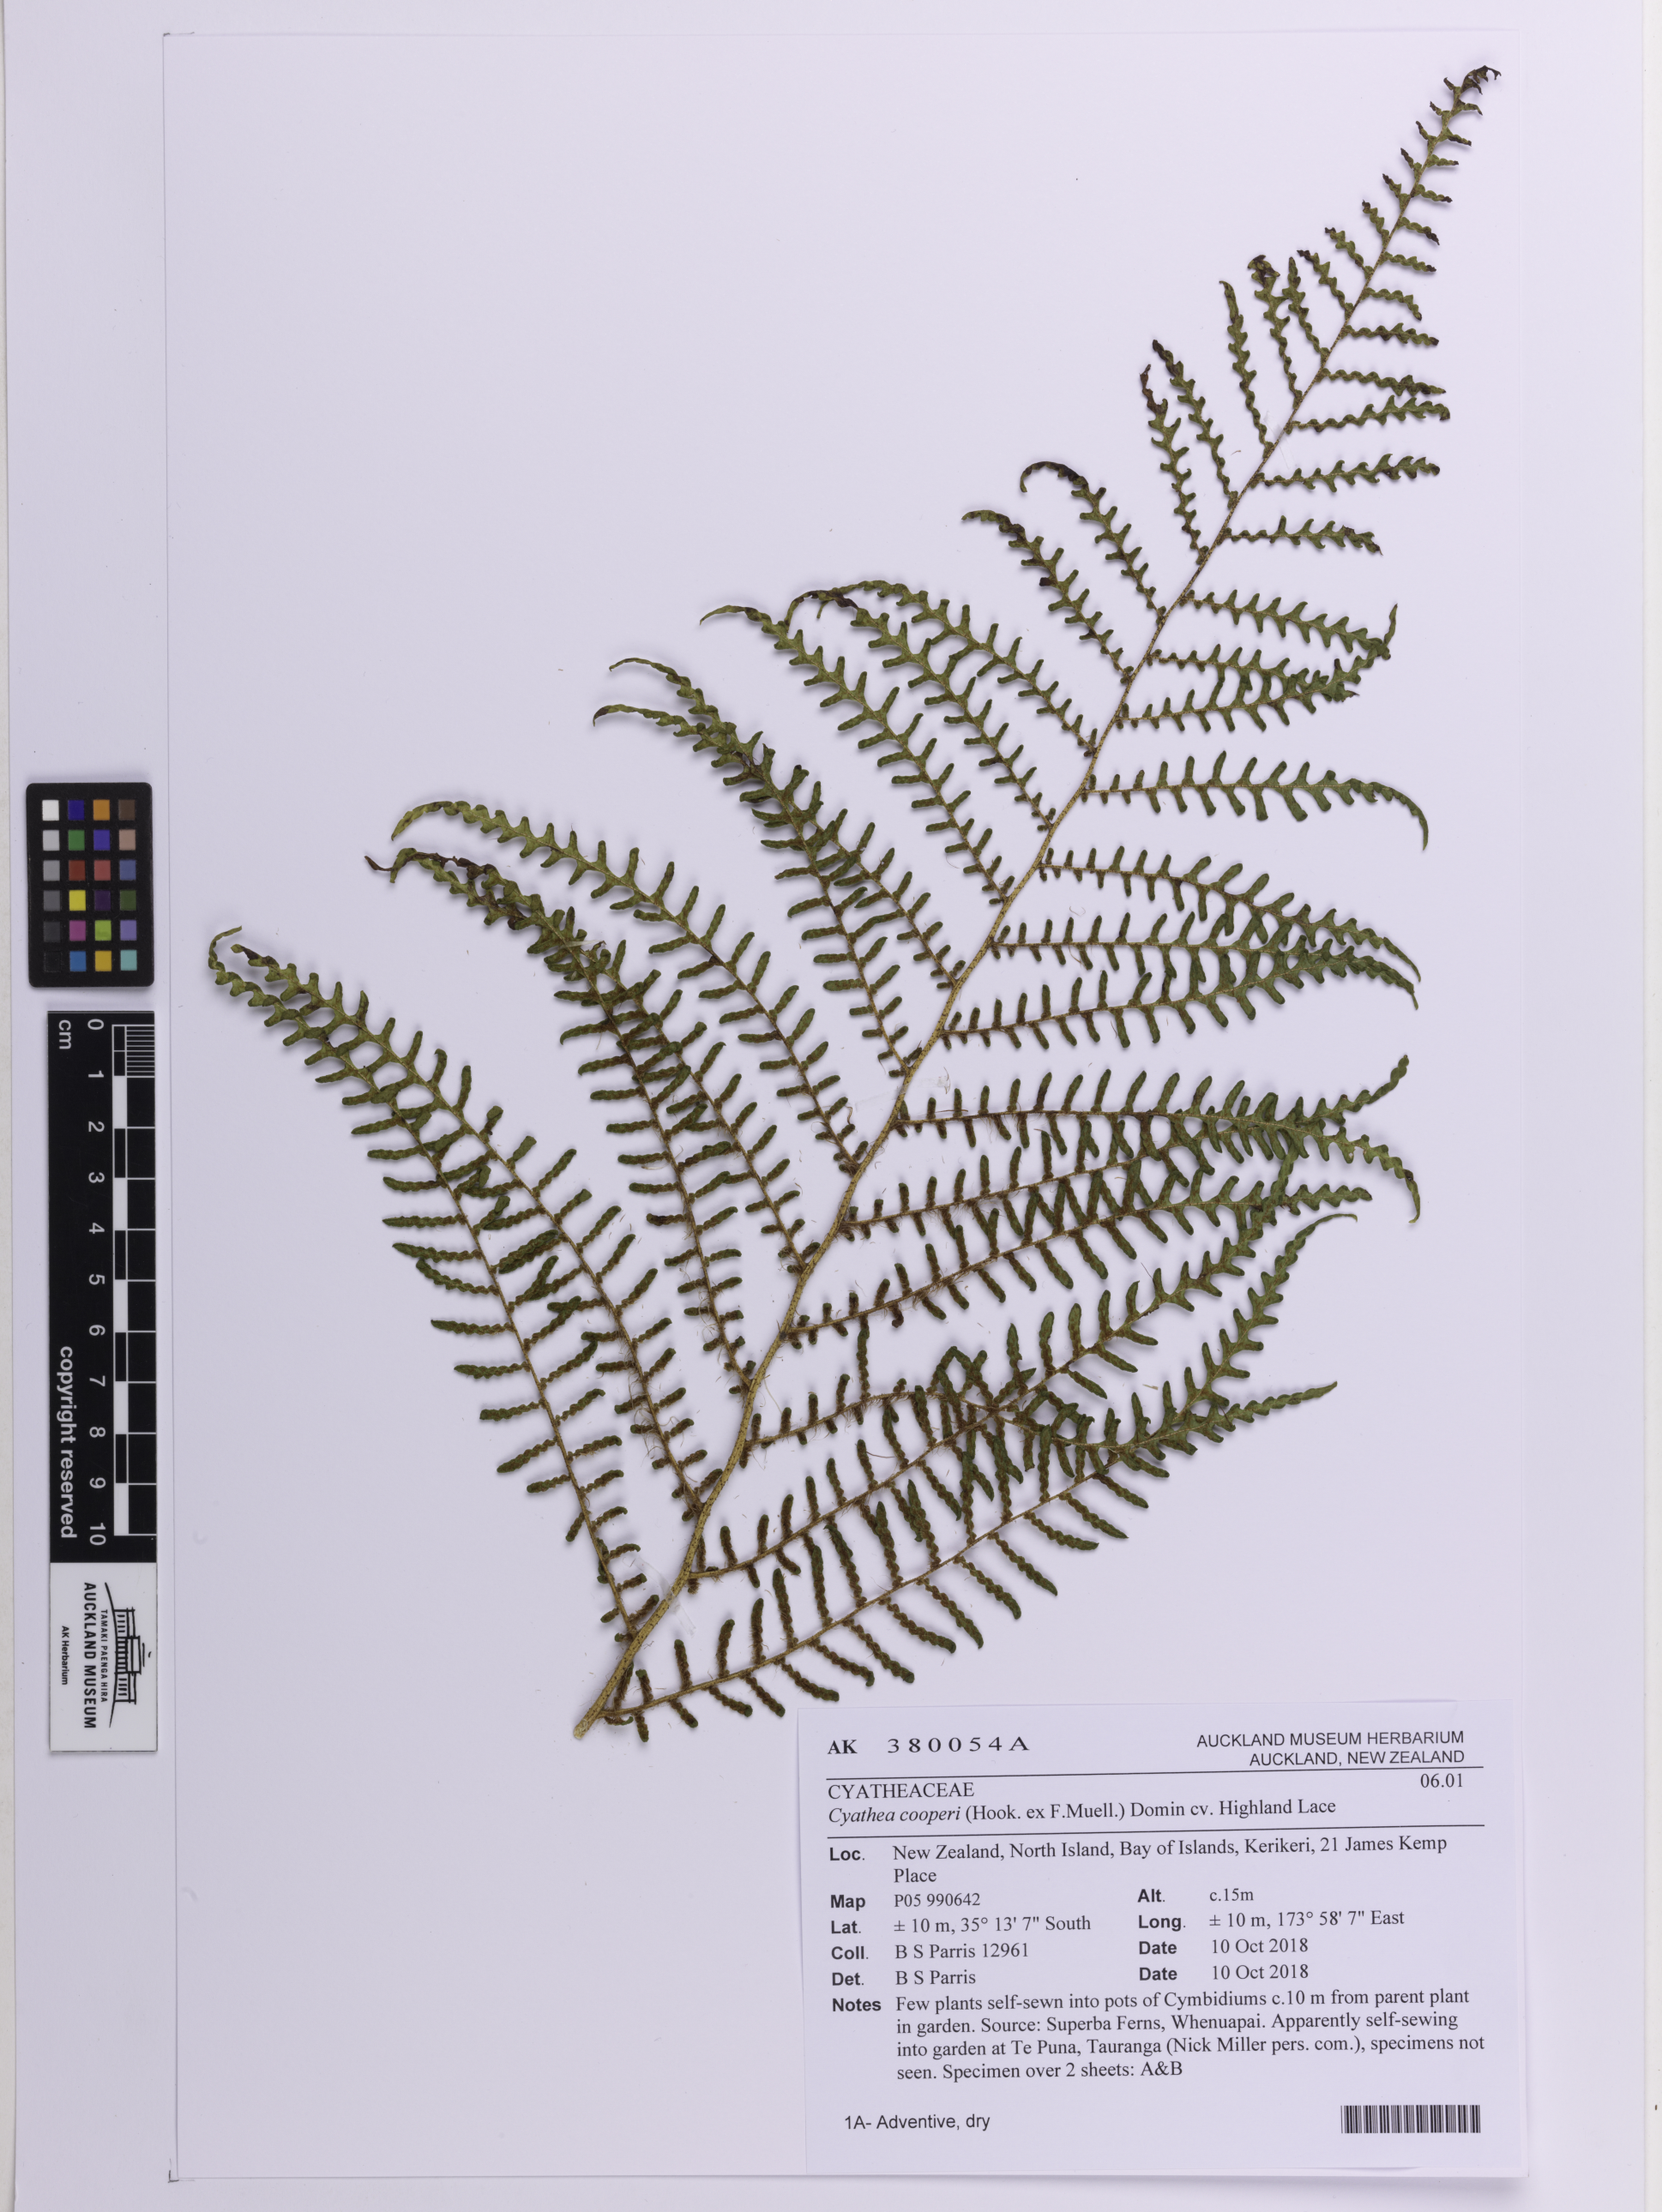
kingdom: Plantae
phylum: Tracheophyta
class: Polypodiopsida
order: Cyatheales
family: Cyatheaceae
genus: Sphaeropteris
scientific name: Sphaeropteris cooperi
